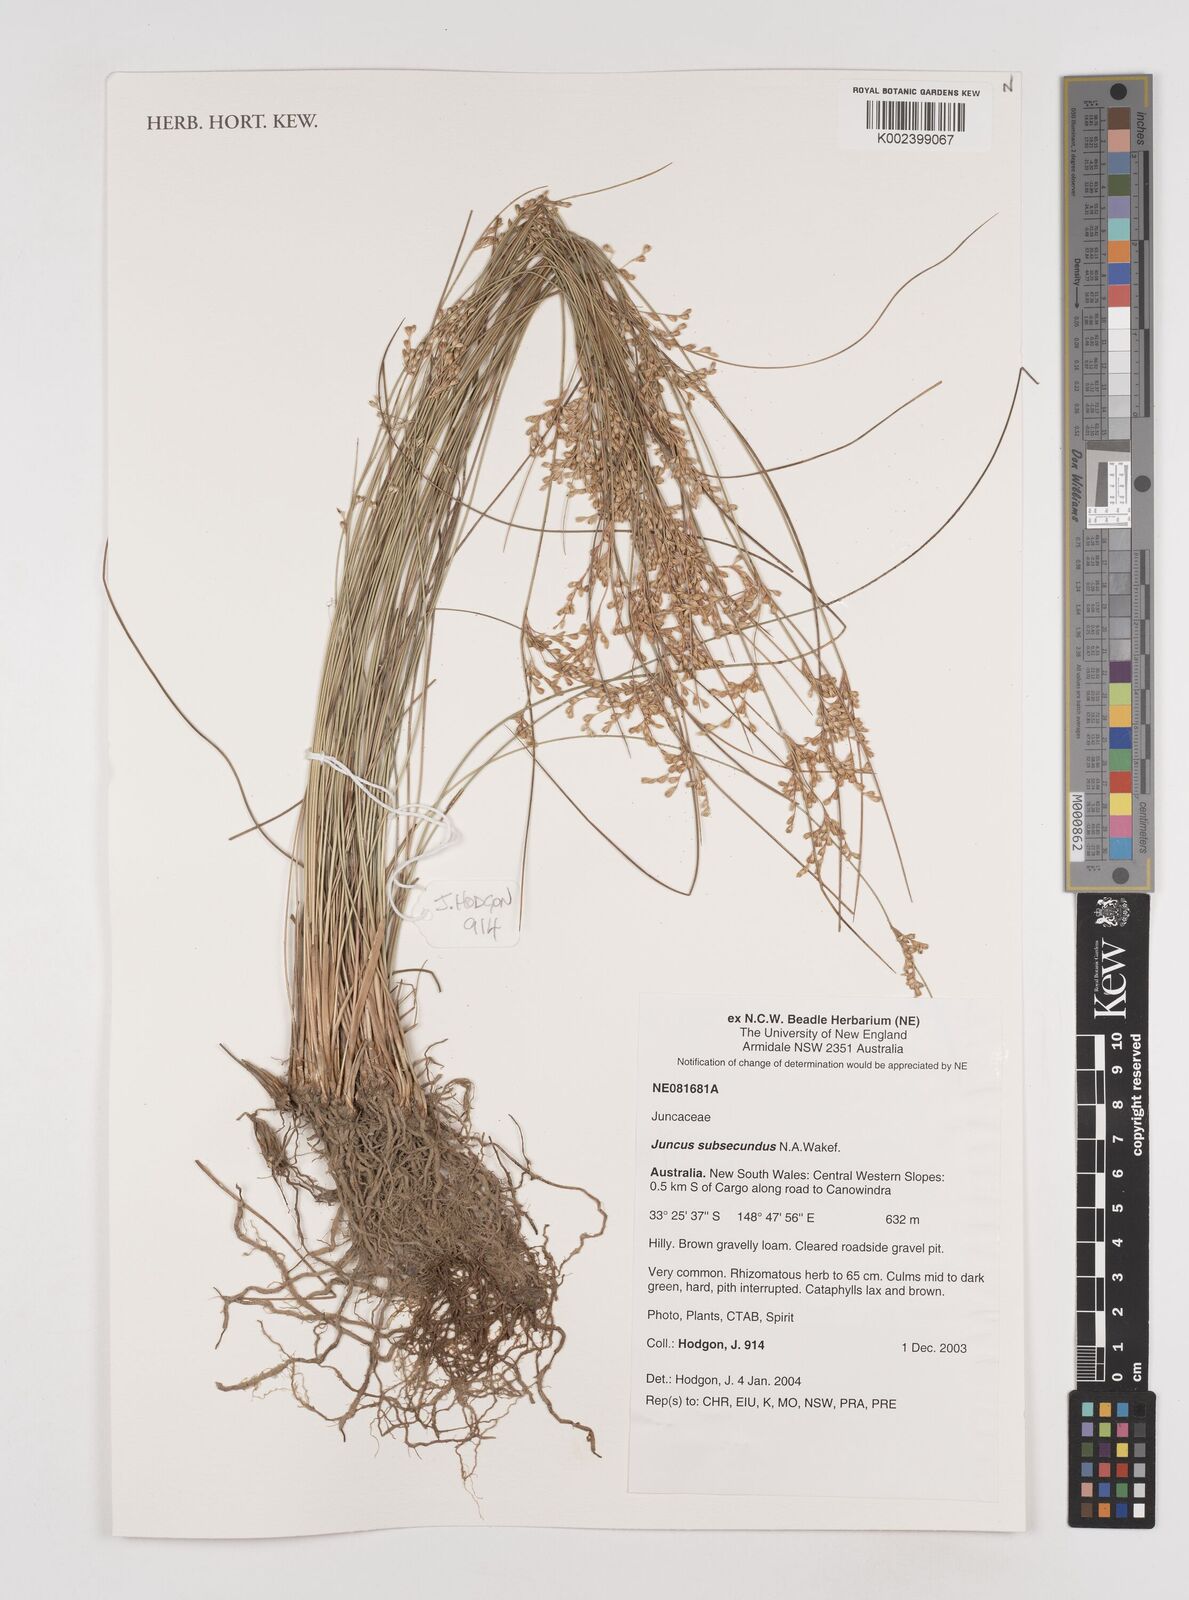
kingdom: Plantae
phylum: Tracheophyta
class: Liliopsida
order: Poales
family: Juncaceae
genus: Juncus
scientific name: Juncus subsecundus
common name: Fingered rush
